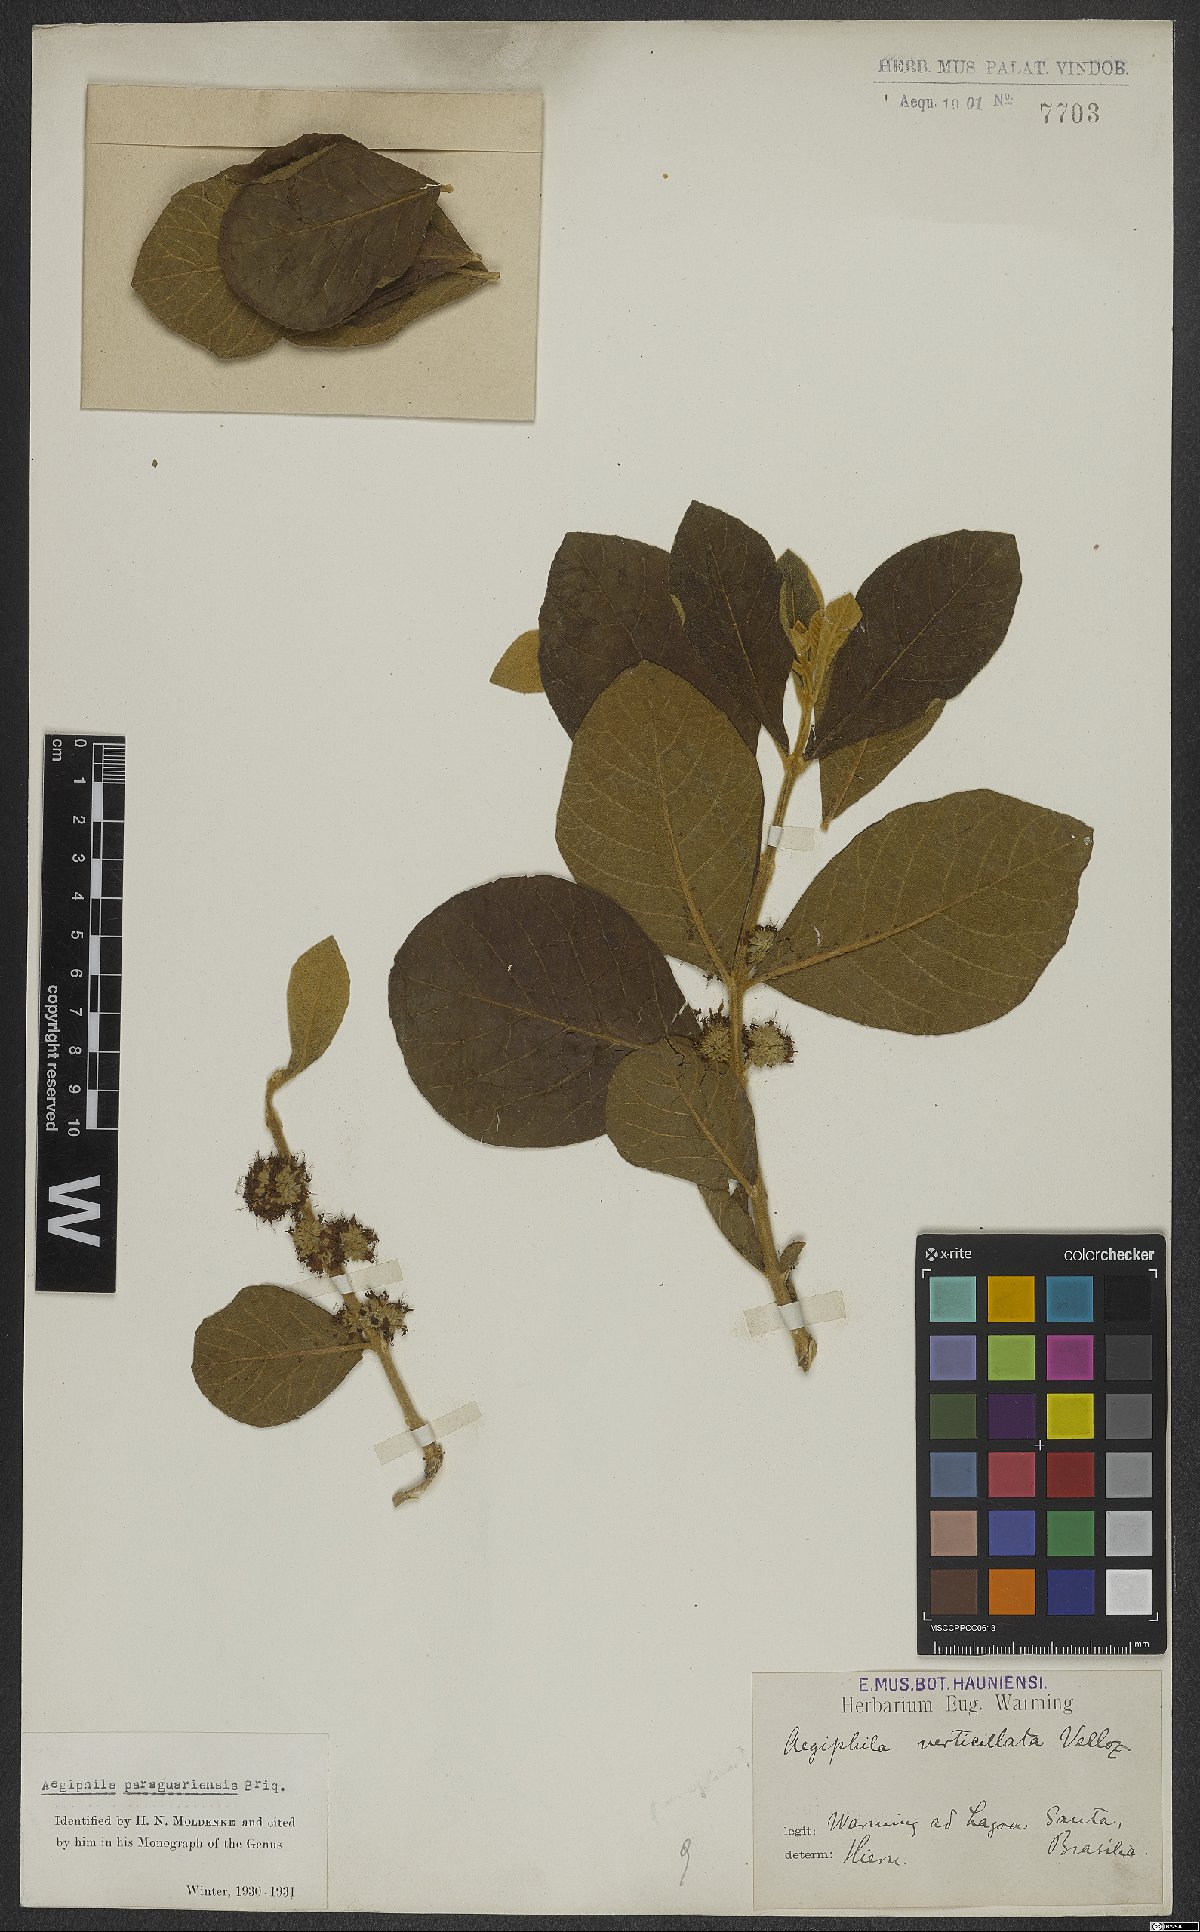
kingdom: Plantae
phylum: Tracheophyta
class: Magnoliopsida
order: Lamiales
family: Lamiaceae
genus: Aegiphila
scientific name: Aegiphila paraguariensis
